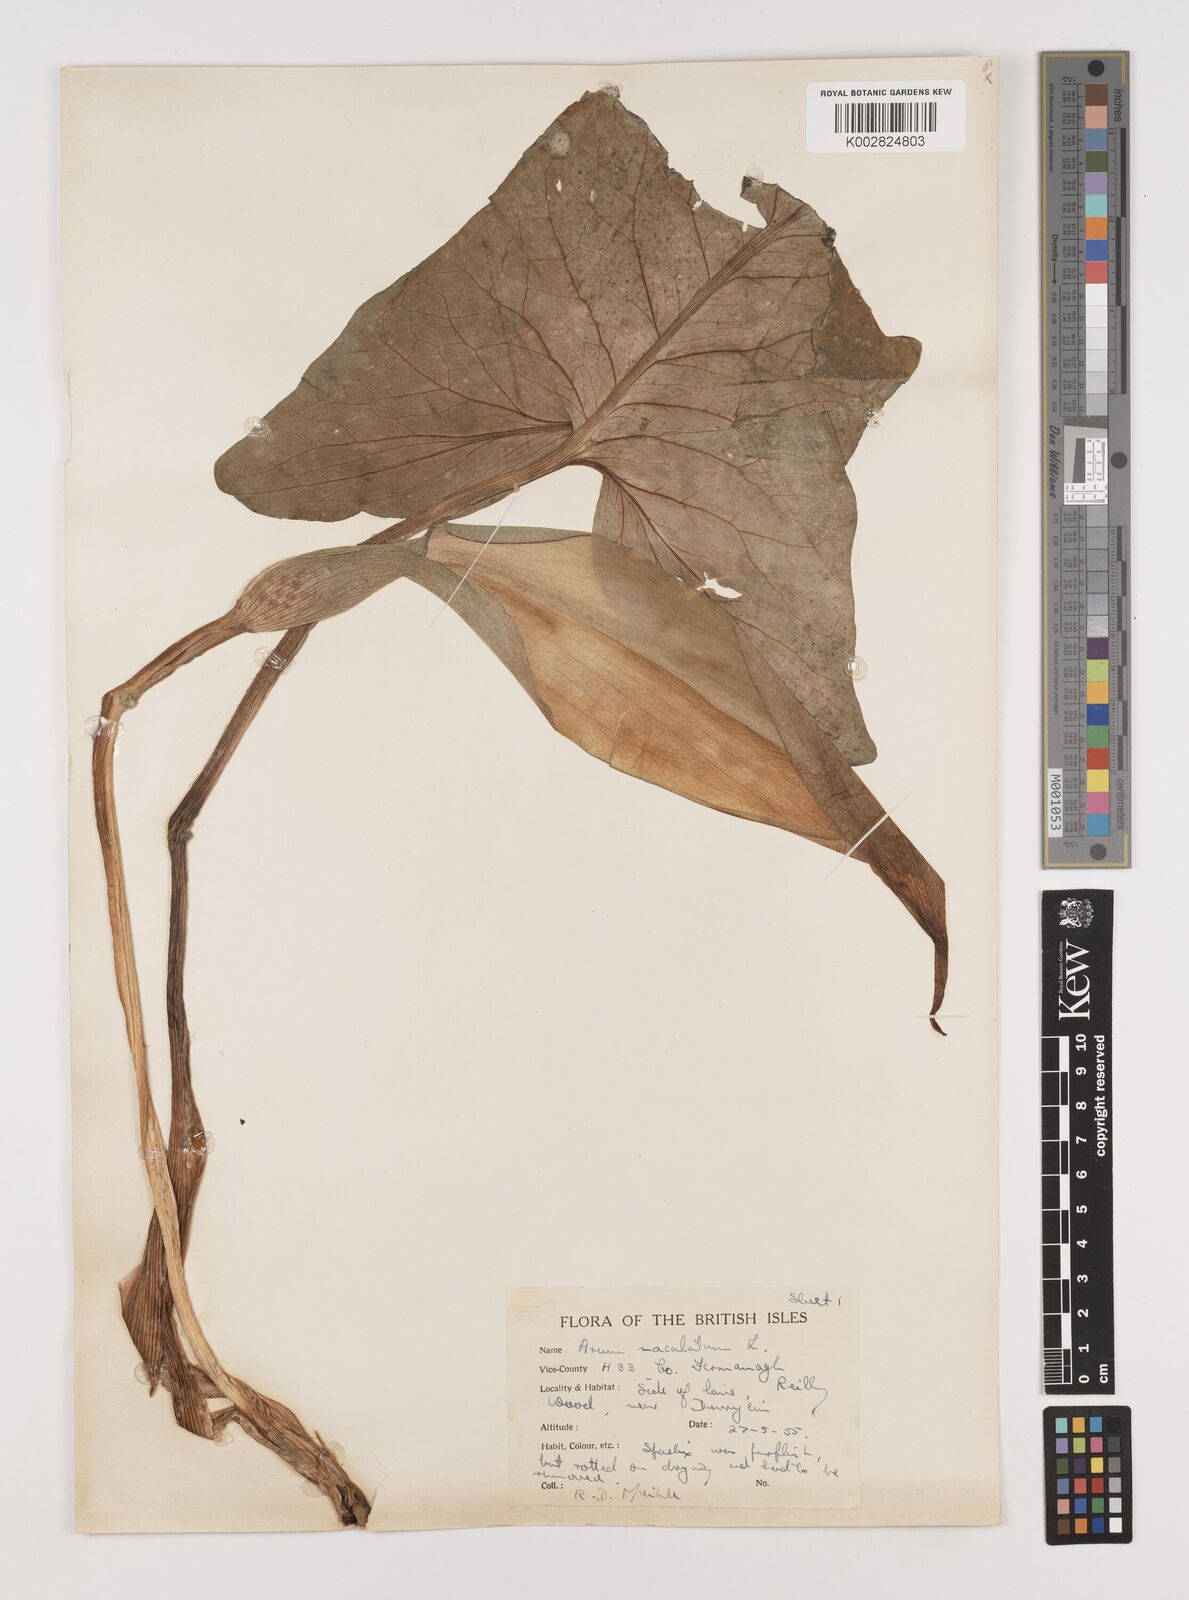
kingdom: Plantae
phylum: Tracheophyta
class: Liliopsida
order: Alismatales
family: Araceae
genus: Arum
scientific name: Arum maculatum
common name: Lords-and-ladies
